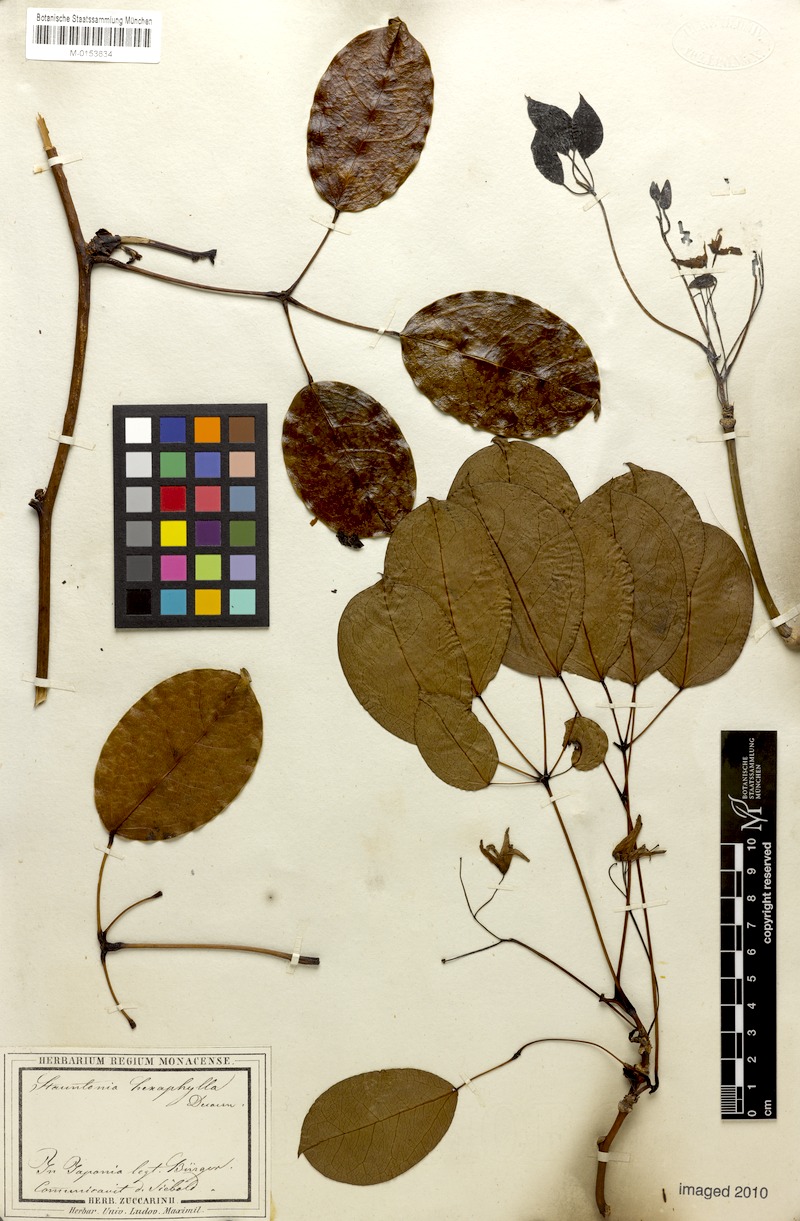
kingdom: Plantae
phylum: Tracheophyta
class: Magnoliopsida
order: Ranunculales
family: Lardizabalaceae
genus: Stauntonia
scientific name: Stauntonia hexaphylla
